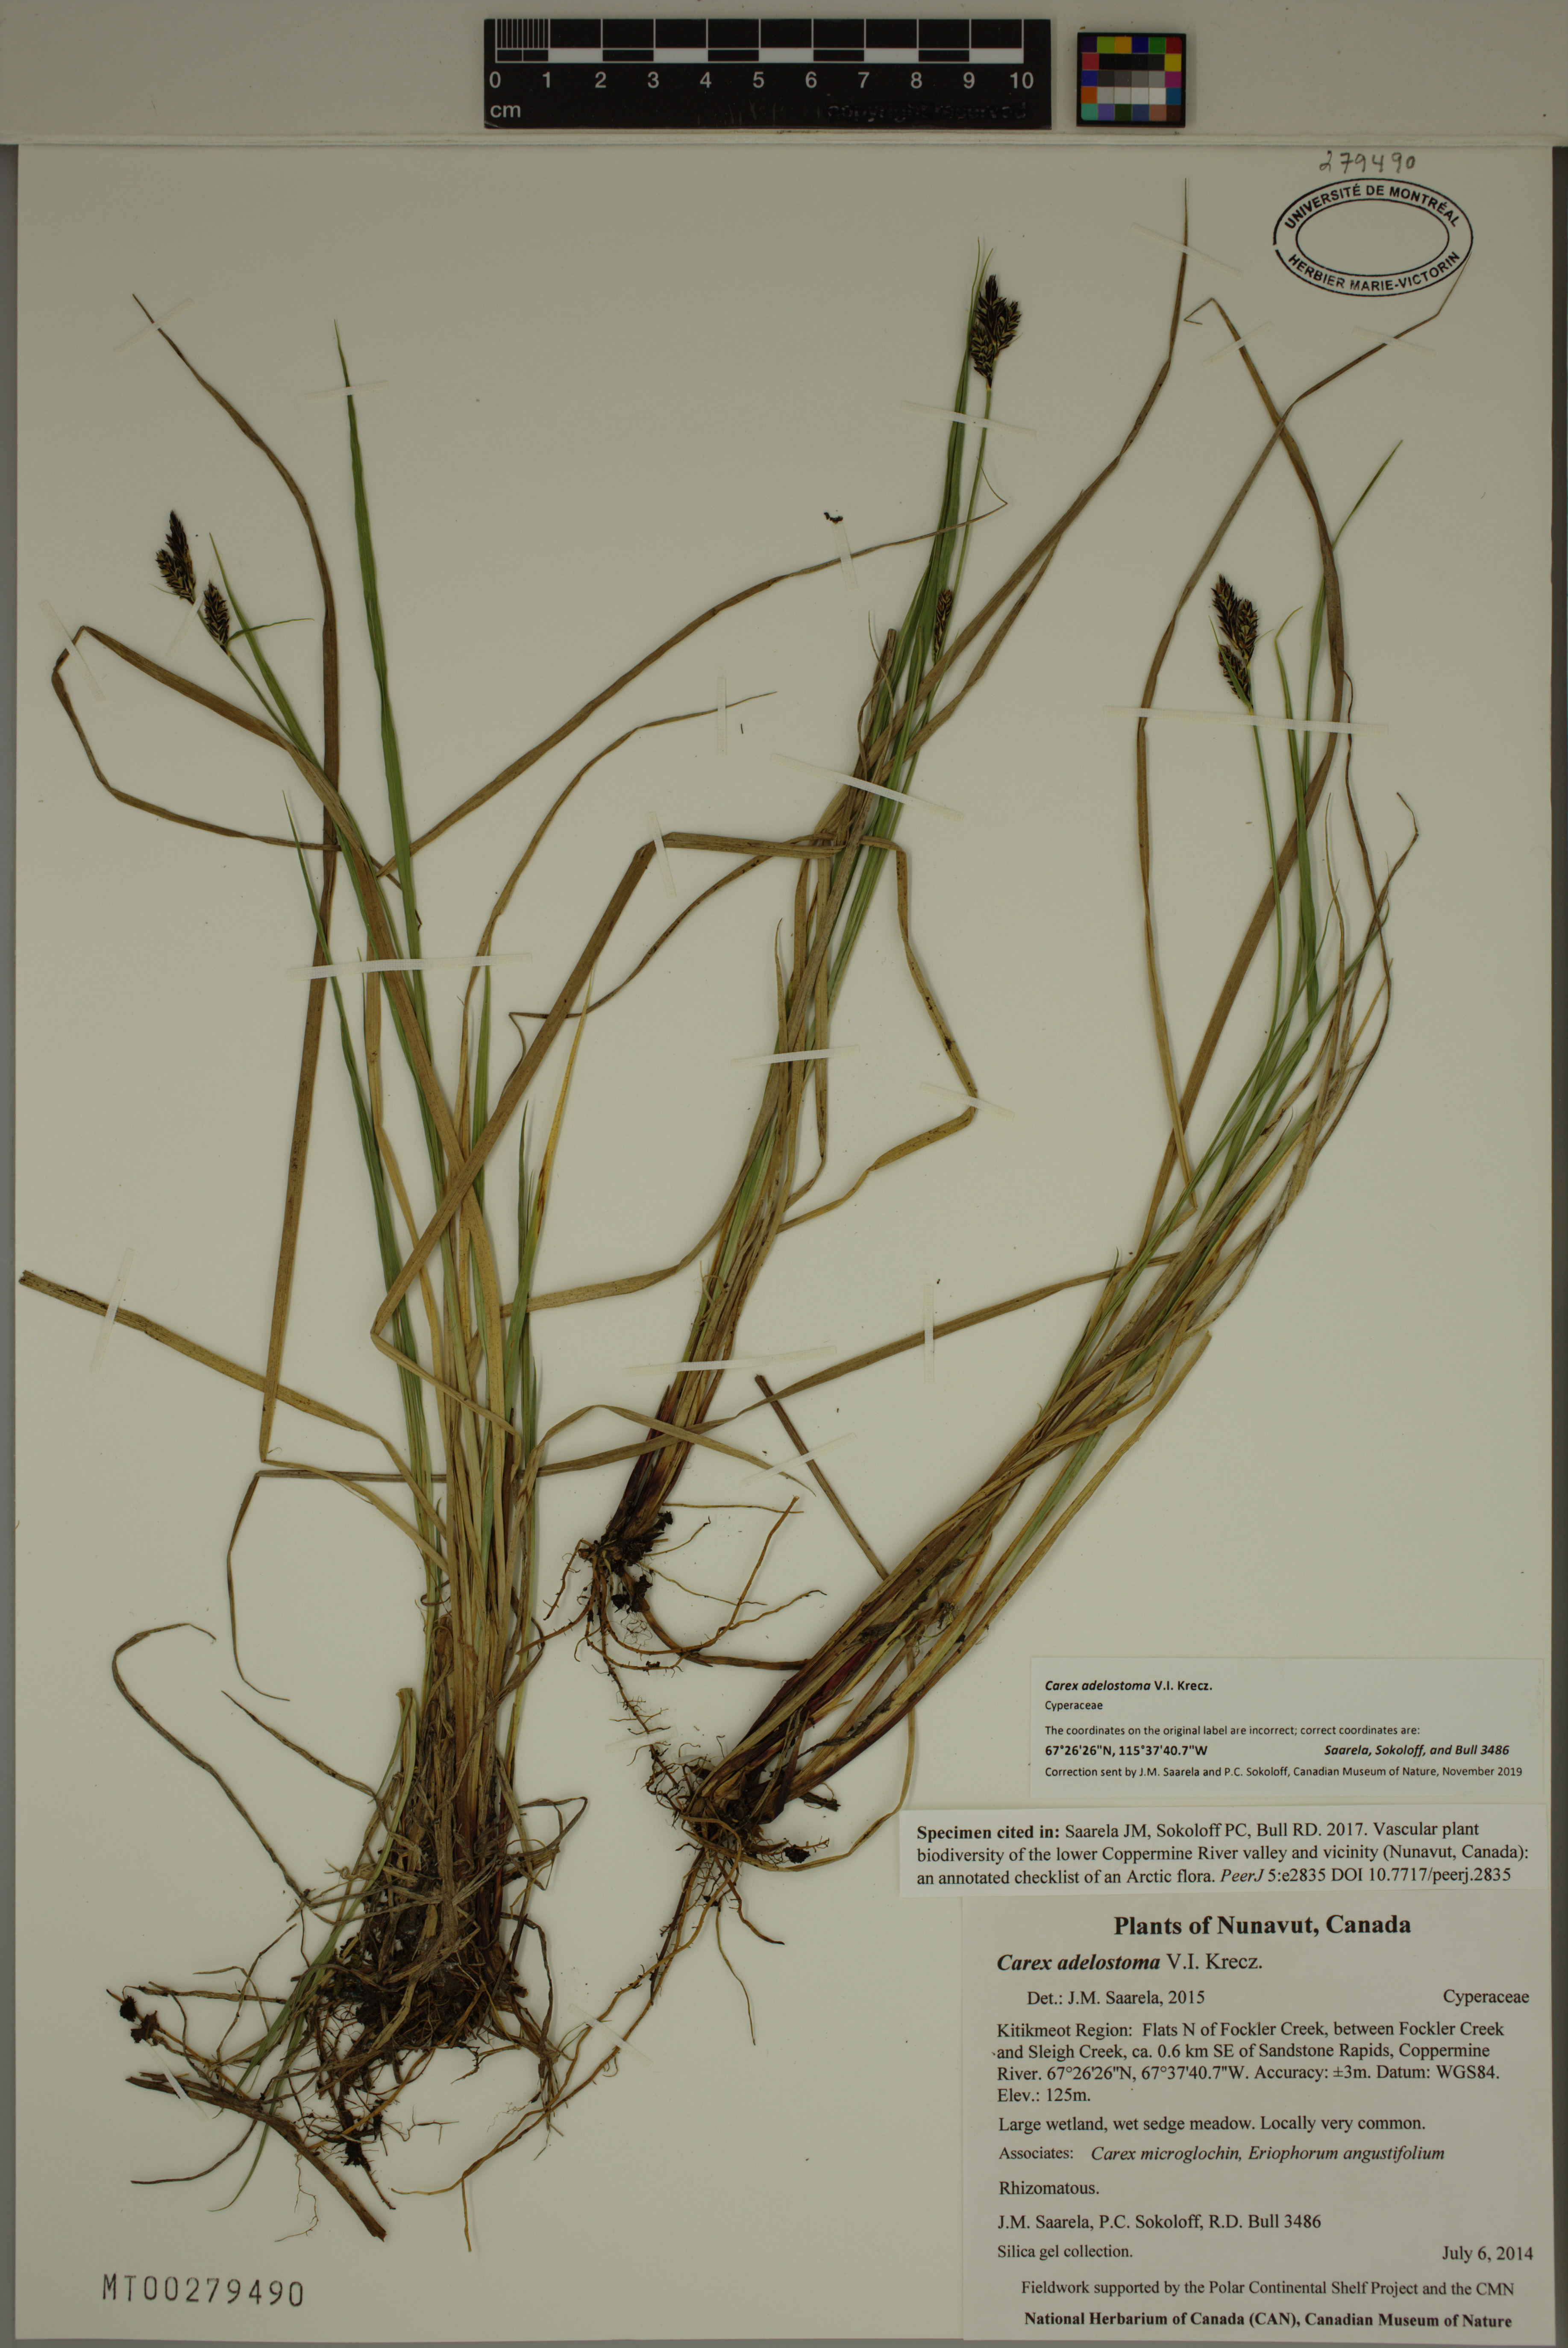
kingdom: Plantae
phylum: Tracheophyta
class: Liliopsida
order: Poales
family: Cyperaceae
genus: Carex
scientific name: Carex adelostoma
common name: Circumpolar sedge
